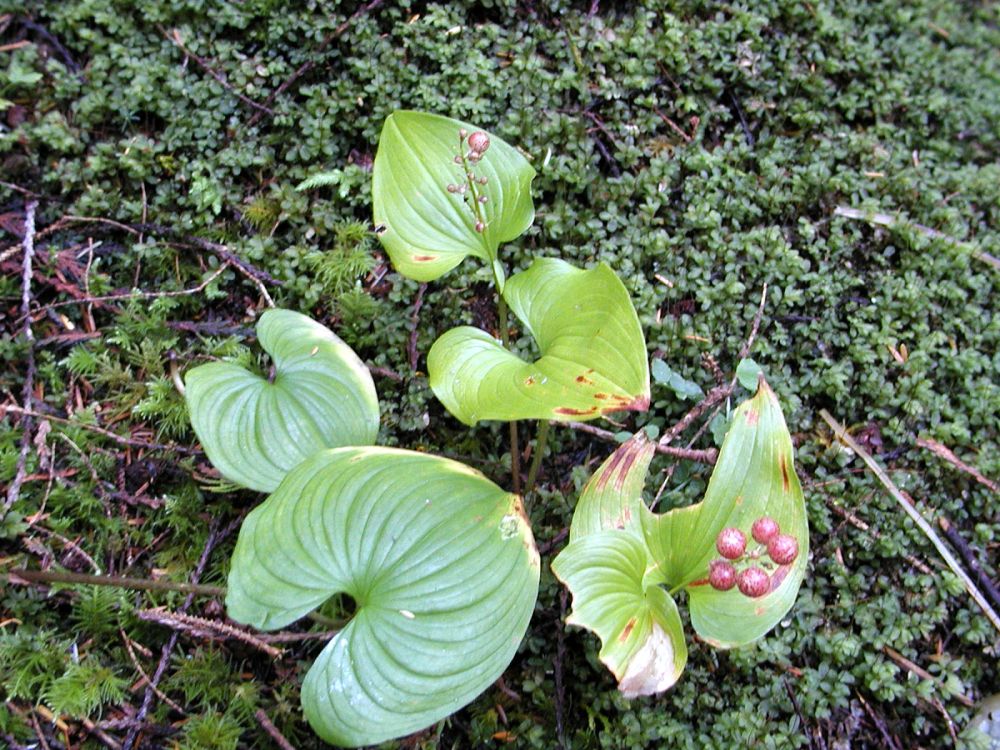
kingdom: Plantae
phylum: Tracheophyta
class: Liliopsida
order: Asparagales
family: Asparagaceae
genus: Maianthemum
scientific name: Maianthemum dilatatum
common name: False lily-of-the-valley
